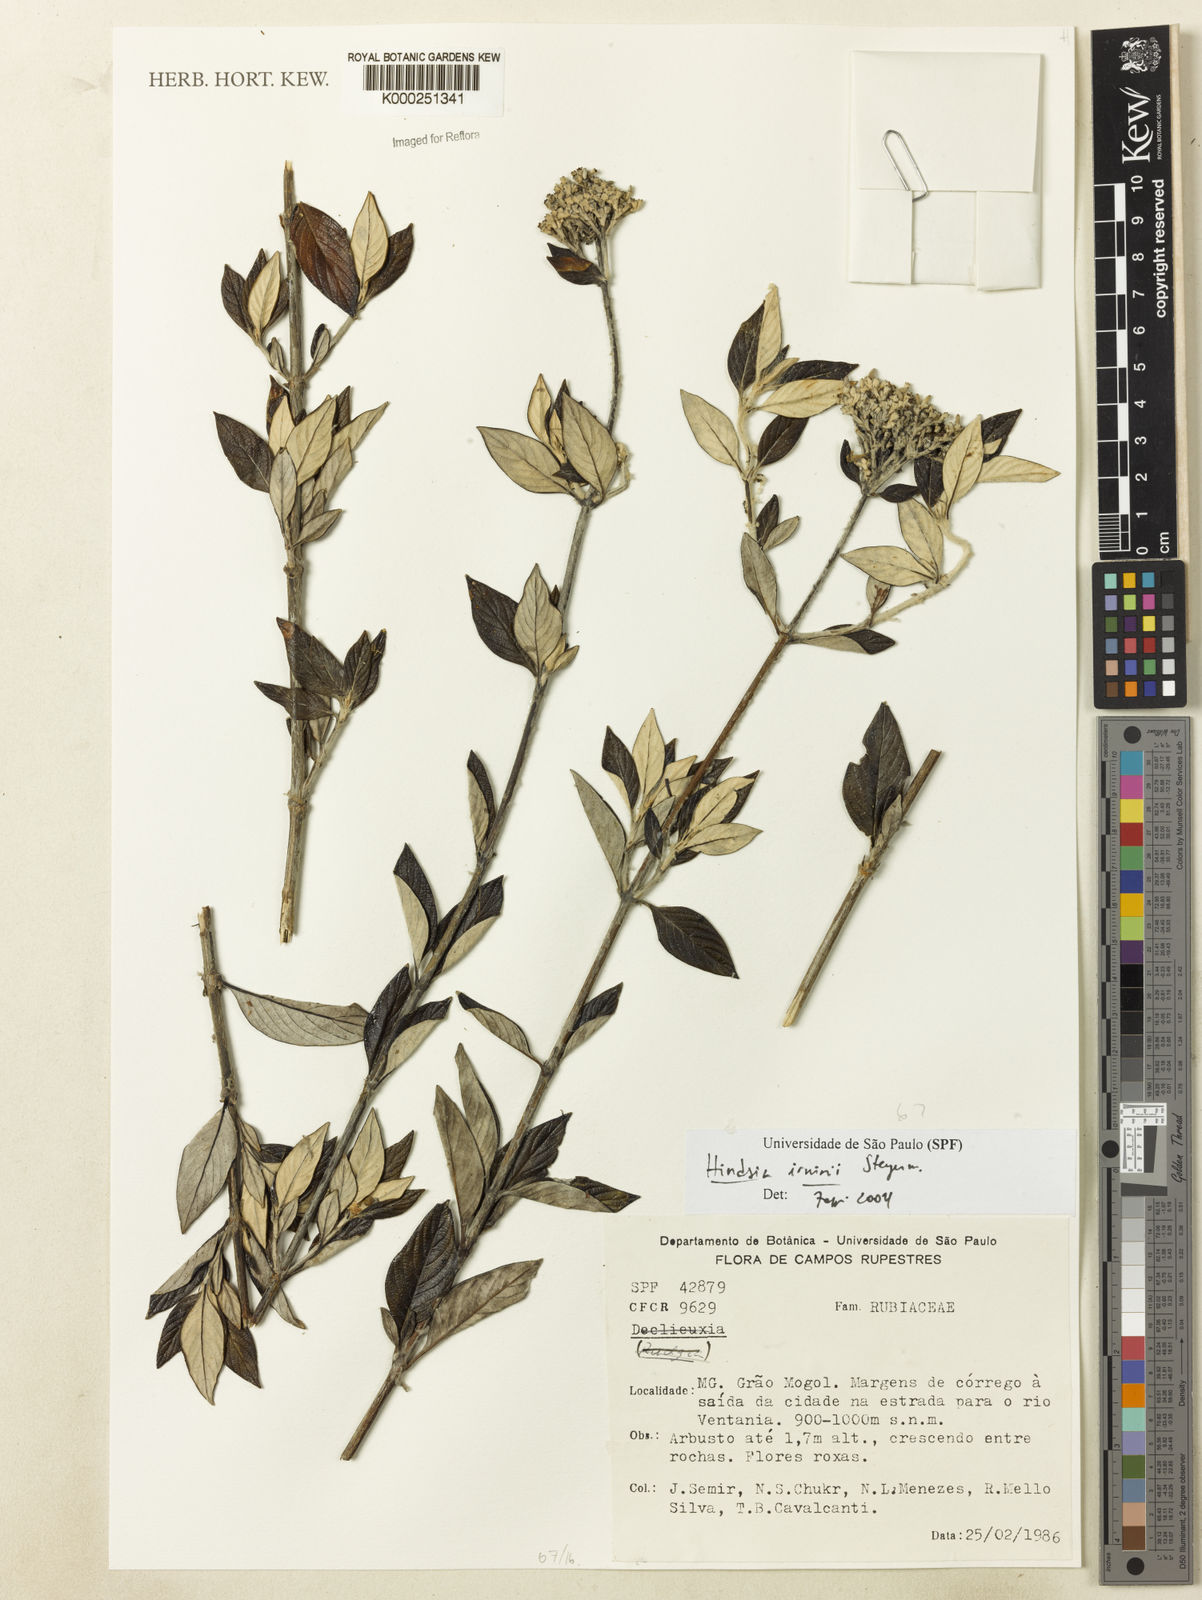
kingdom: Plantae
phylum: Tracheophyta
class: Magnoliopsida
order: Gentianales
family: Rubiaceae
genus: Hindsia
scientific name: Hindsia irwinii
